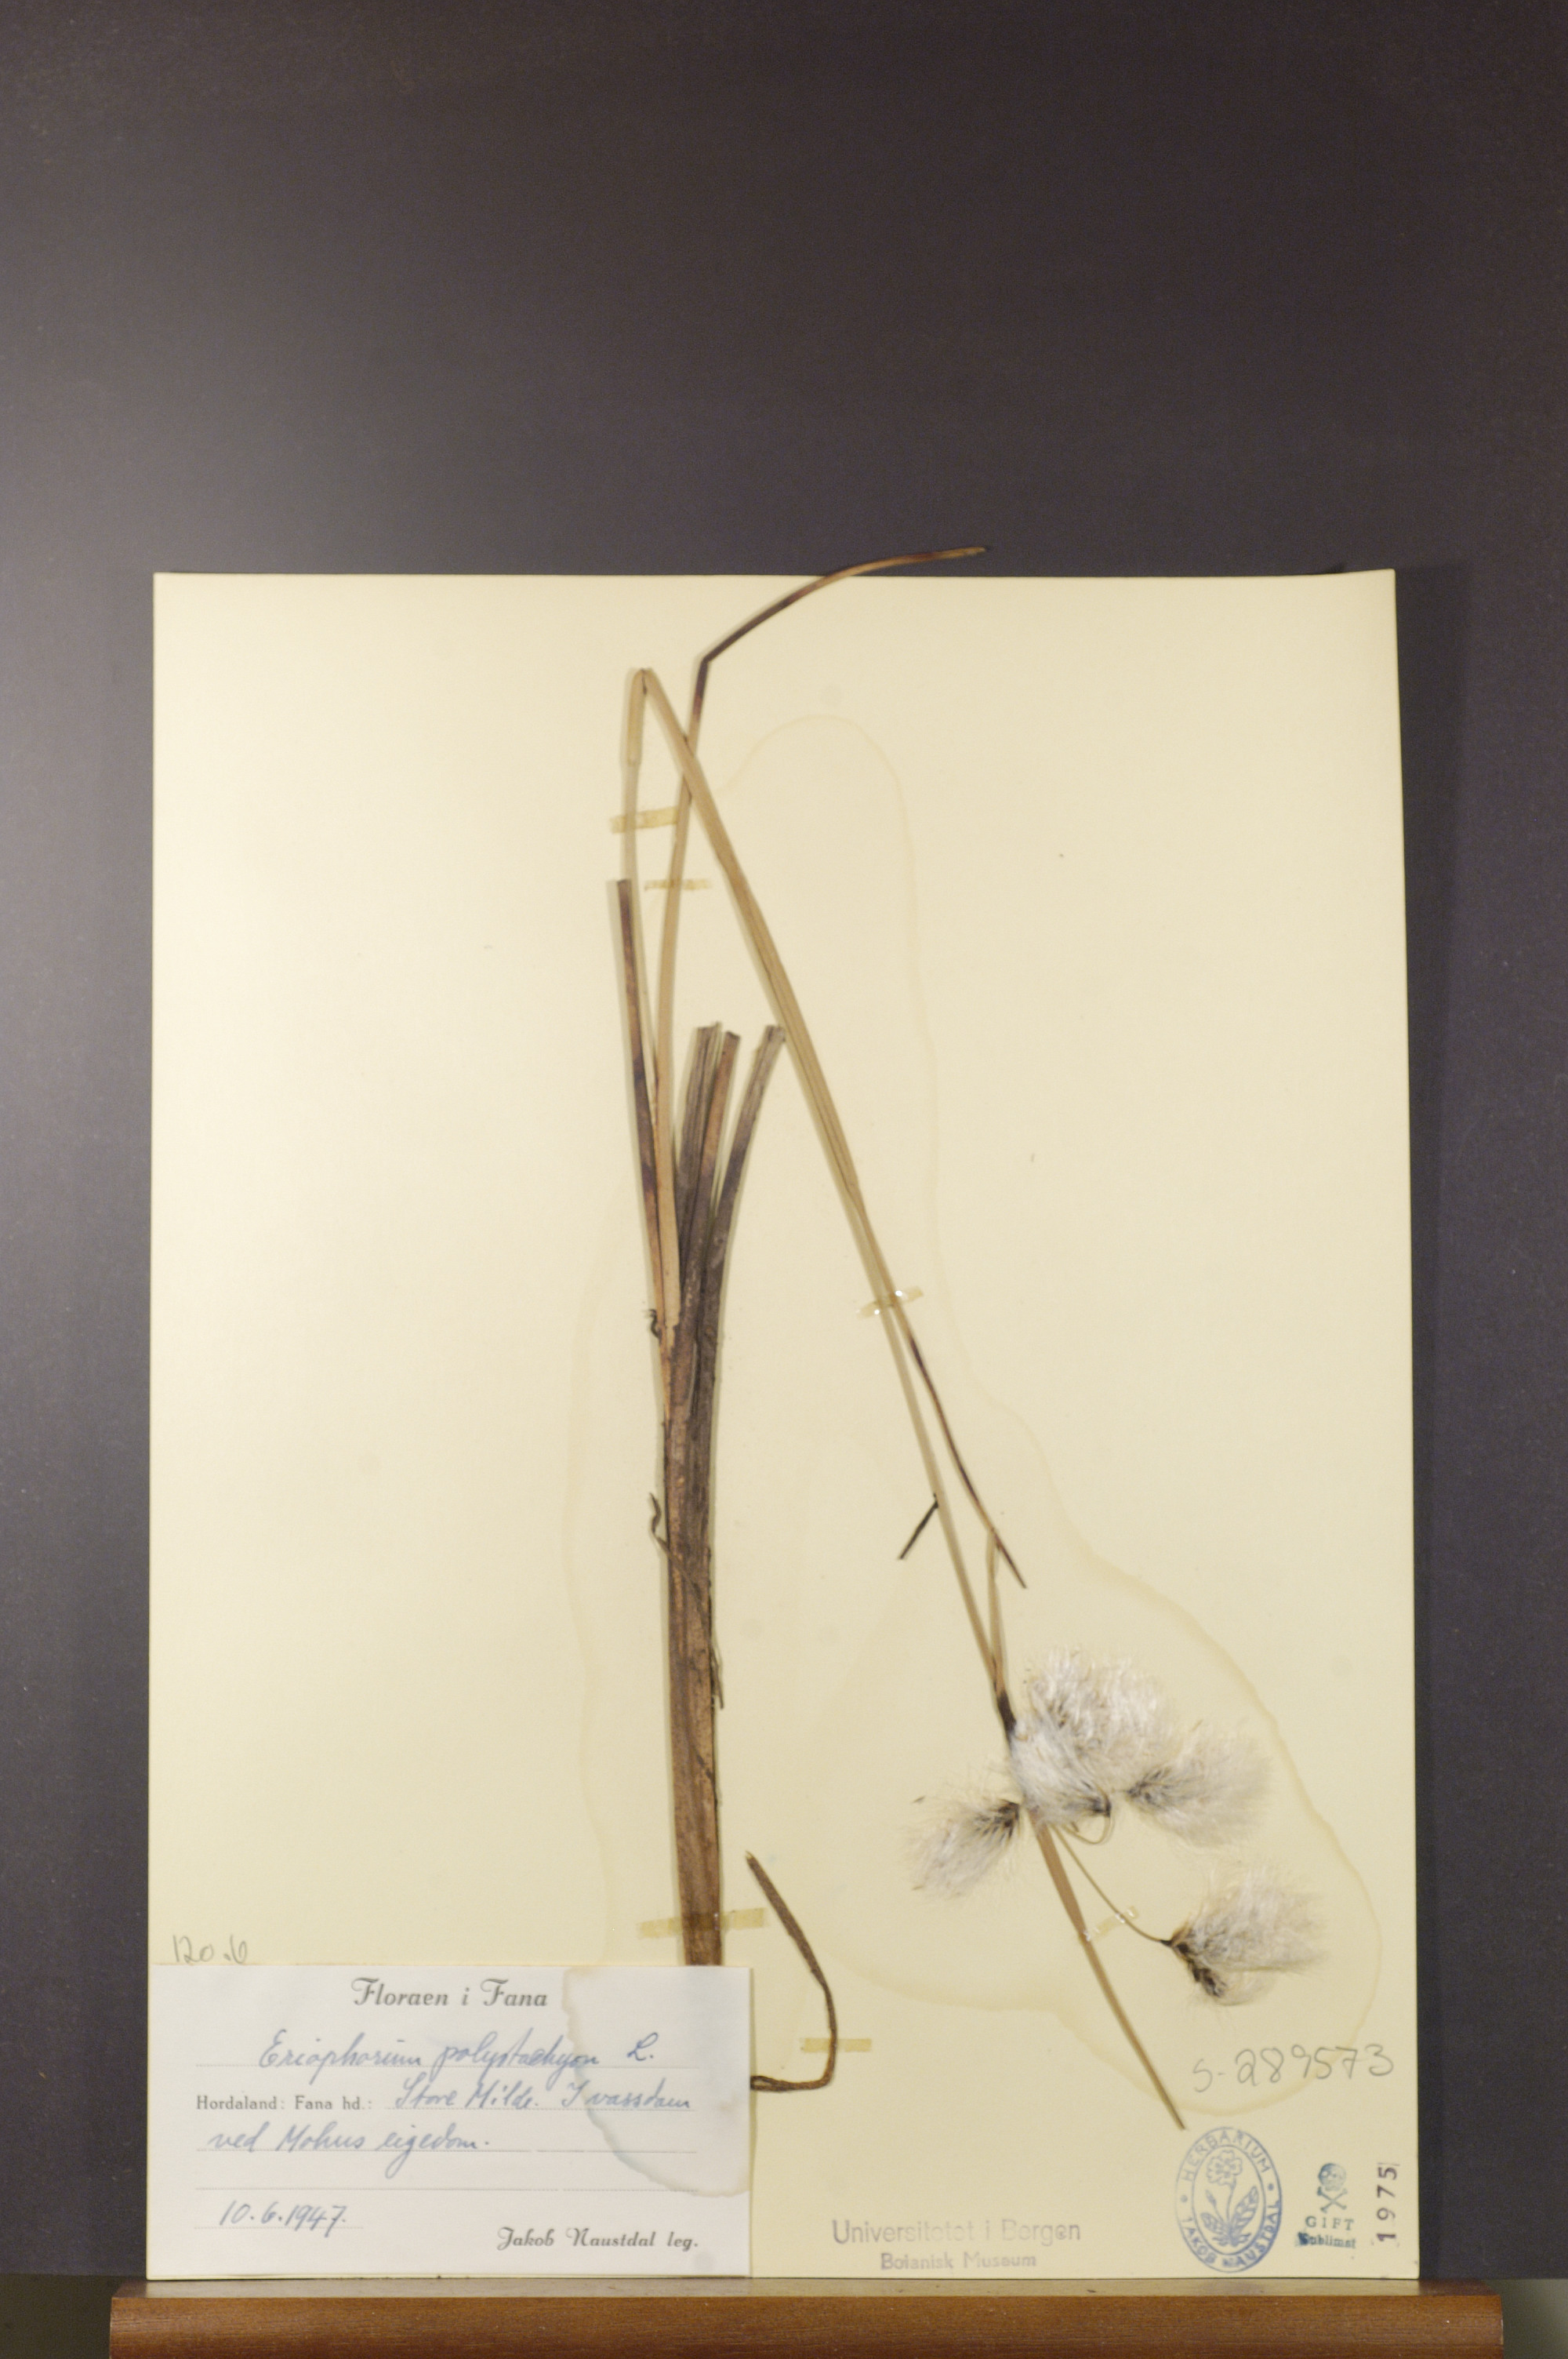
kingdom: Plantae
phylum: Tracheophyta
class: Liliopsida
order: Poales
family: Cyperaceae
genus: Eriophorum
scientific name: Eriophorum angustifolium
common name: Common cottongrass
